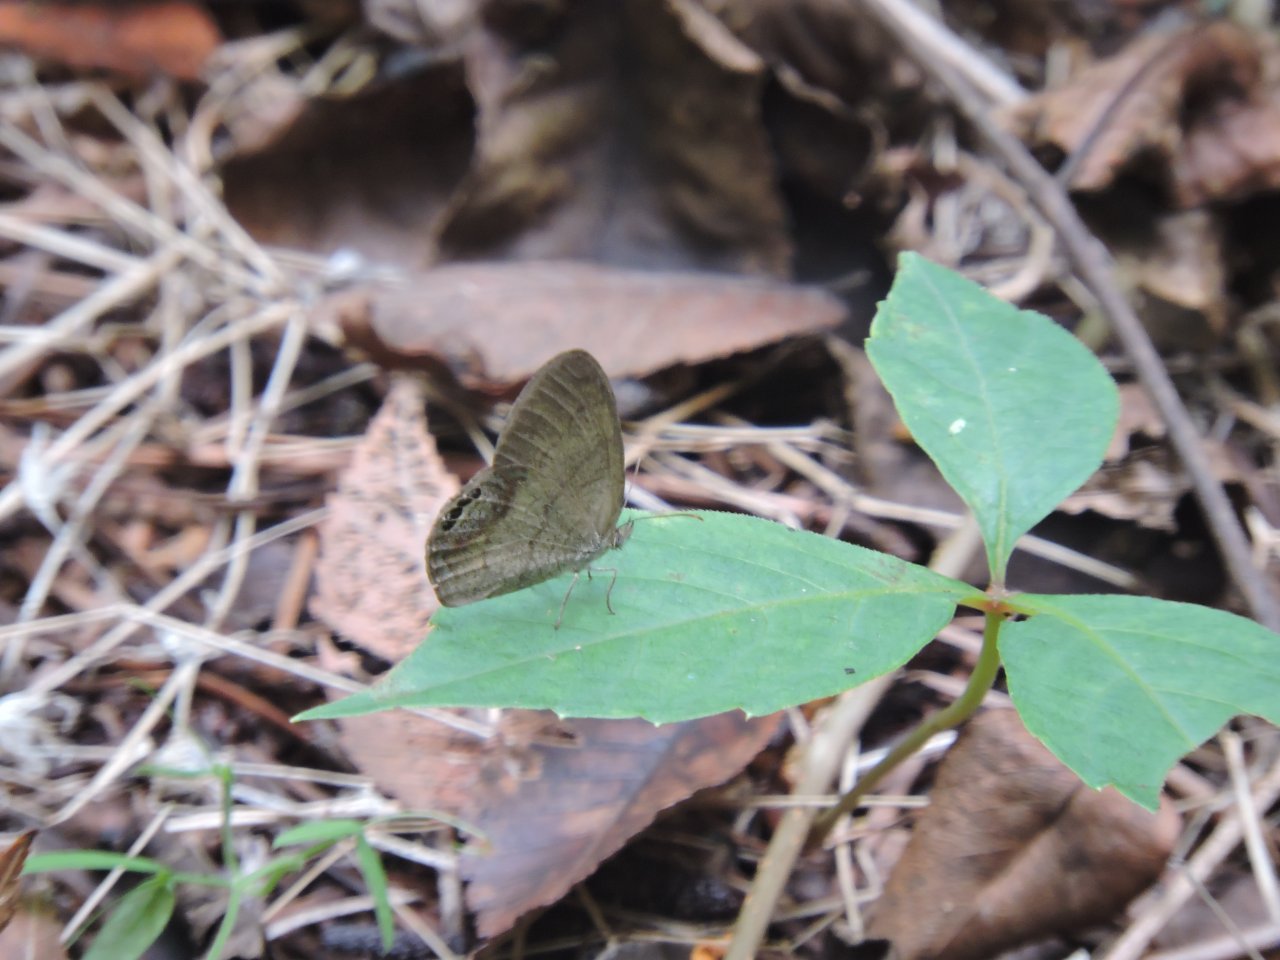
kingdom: Animalia
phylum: Arthropoda
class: Insecta
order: Lepidoptera
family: Nymphalidae
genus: Euptychia
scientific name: Euptychia cornelius
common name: Gemmed Satyr
